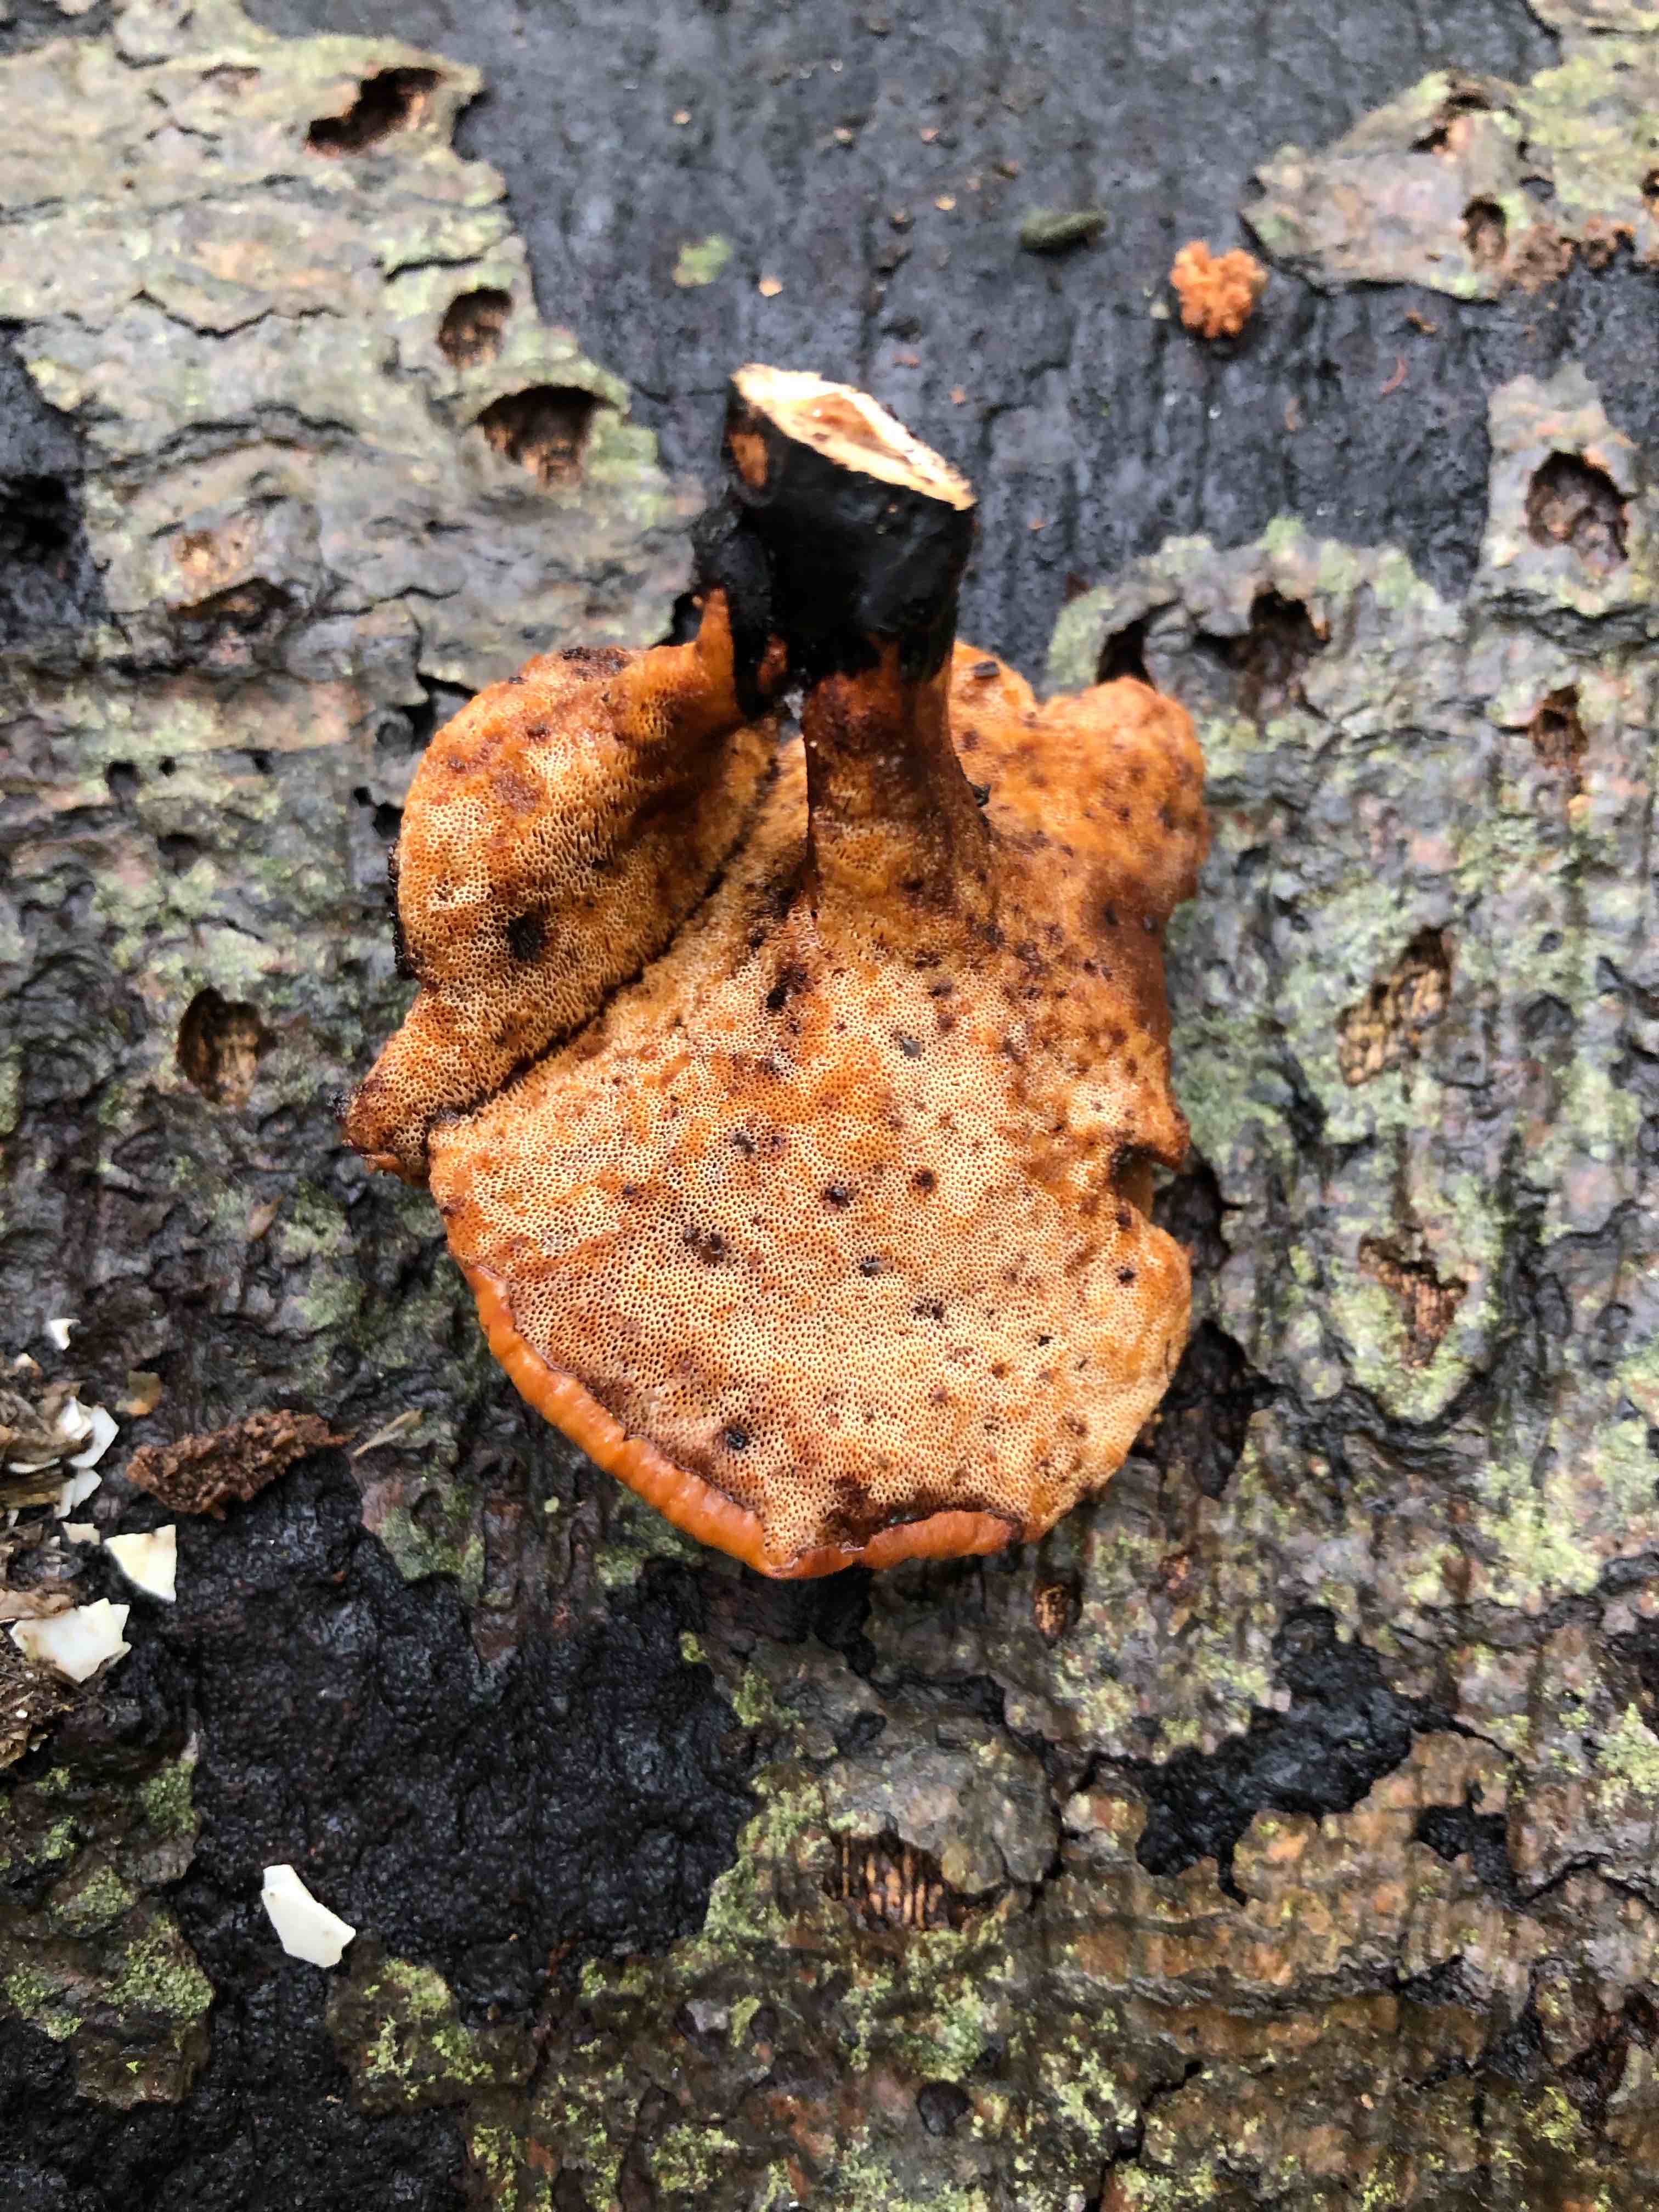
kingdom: Fungi
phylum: Basidiomycota
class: Agaricomycetes
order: Polyporales
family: Polyporaceae
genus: Cerioporus
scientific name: Cerioporus varius
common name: foranderlig stilkporesvamp
